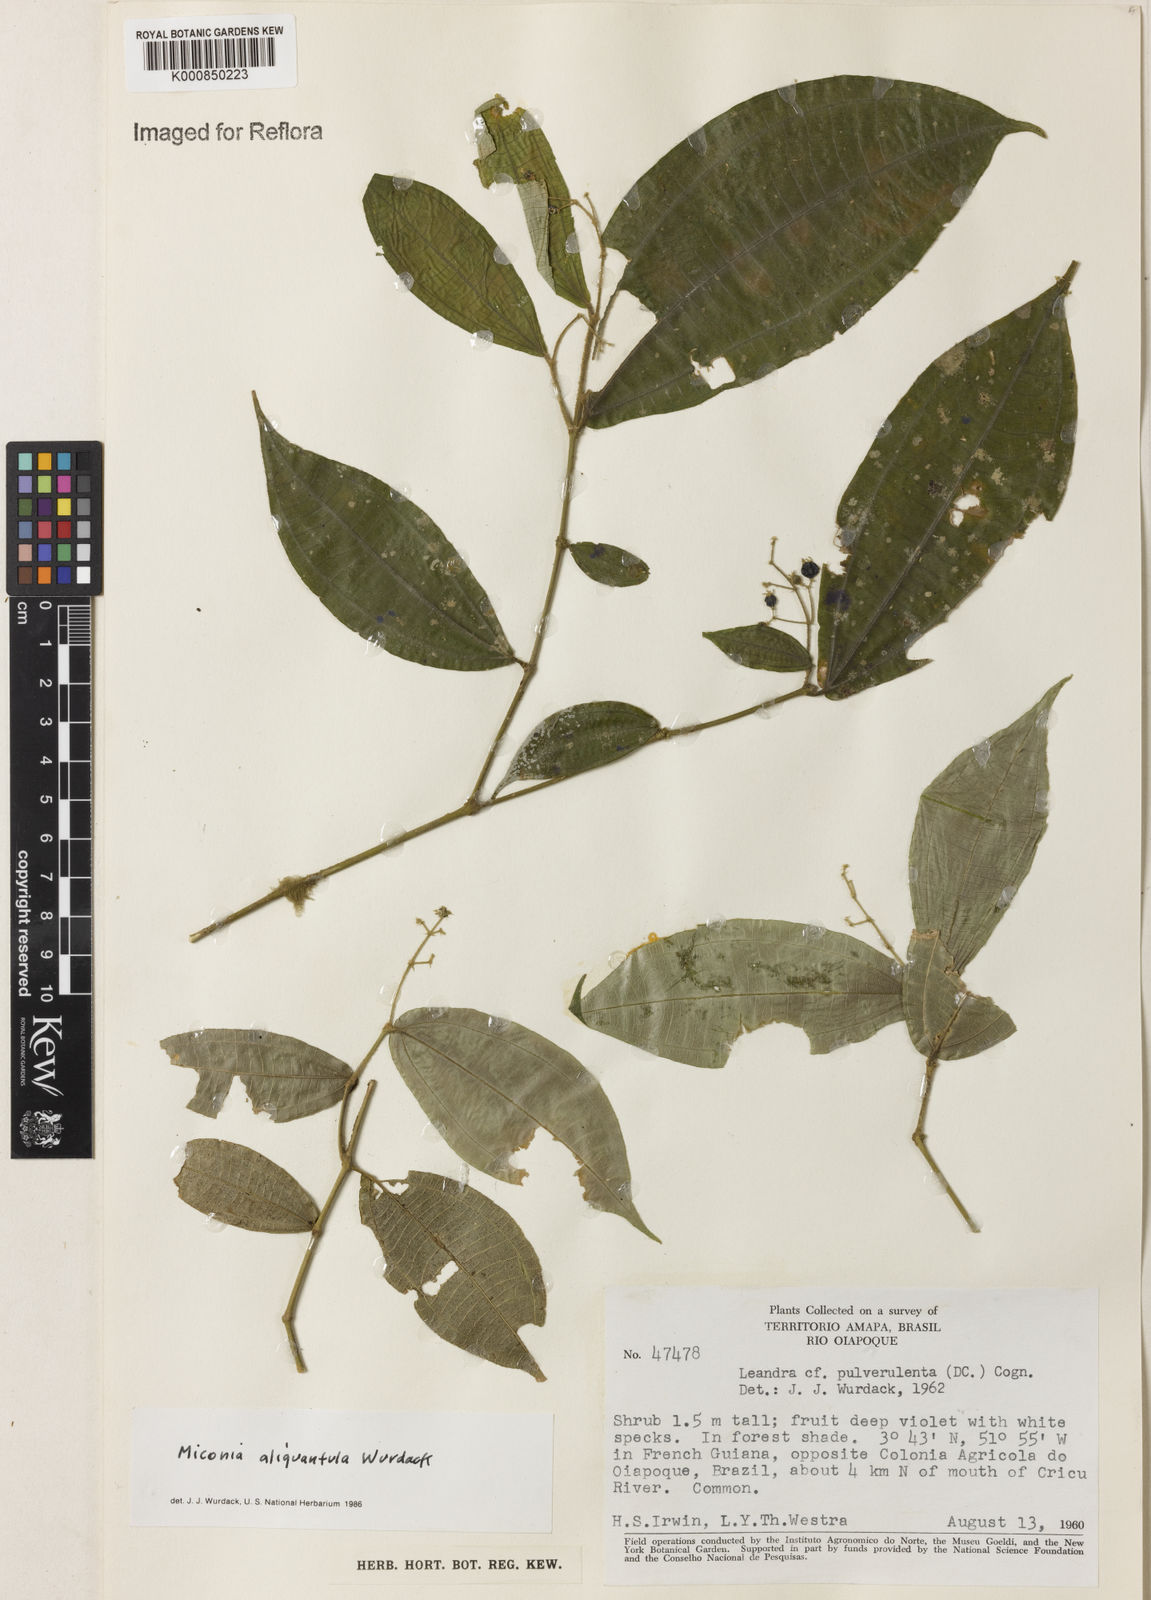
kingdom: Plantae
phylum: Tracheophyta
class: Magnoliopsida
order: Myrtales
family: Melastomataceae
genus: Miconia
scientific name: Miconia aliquantula
